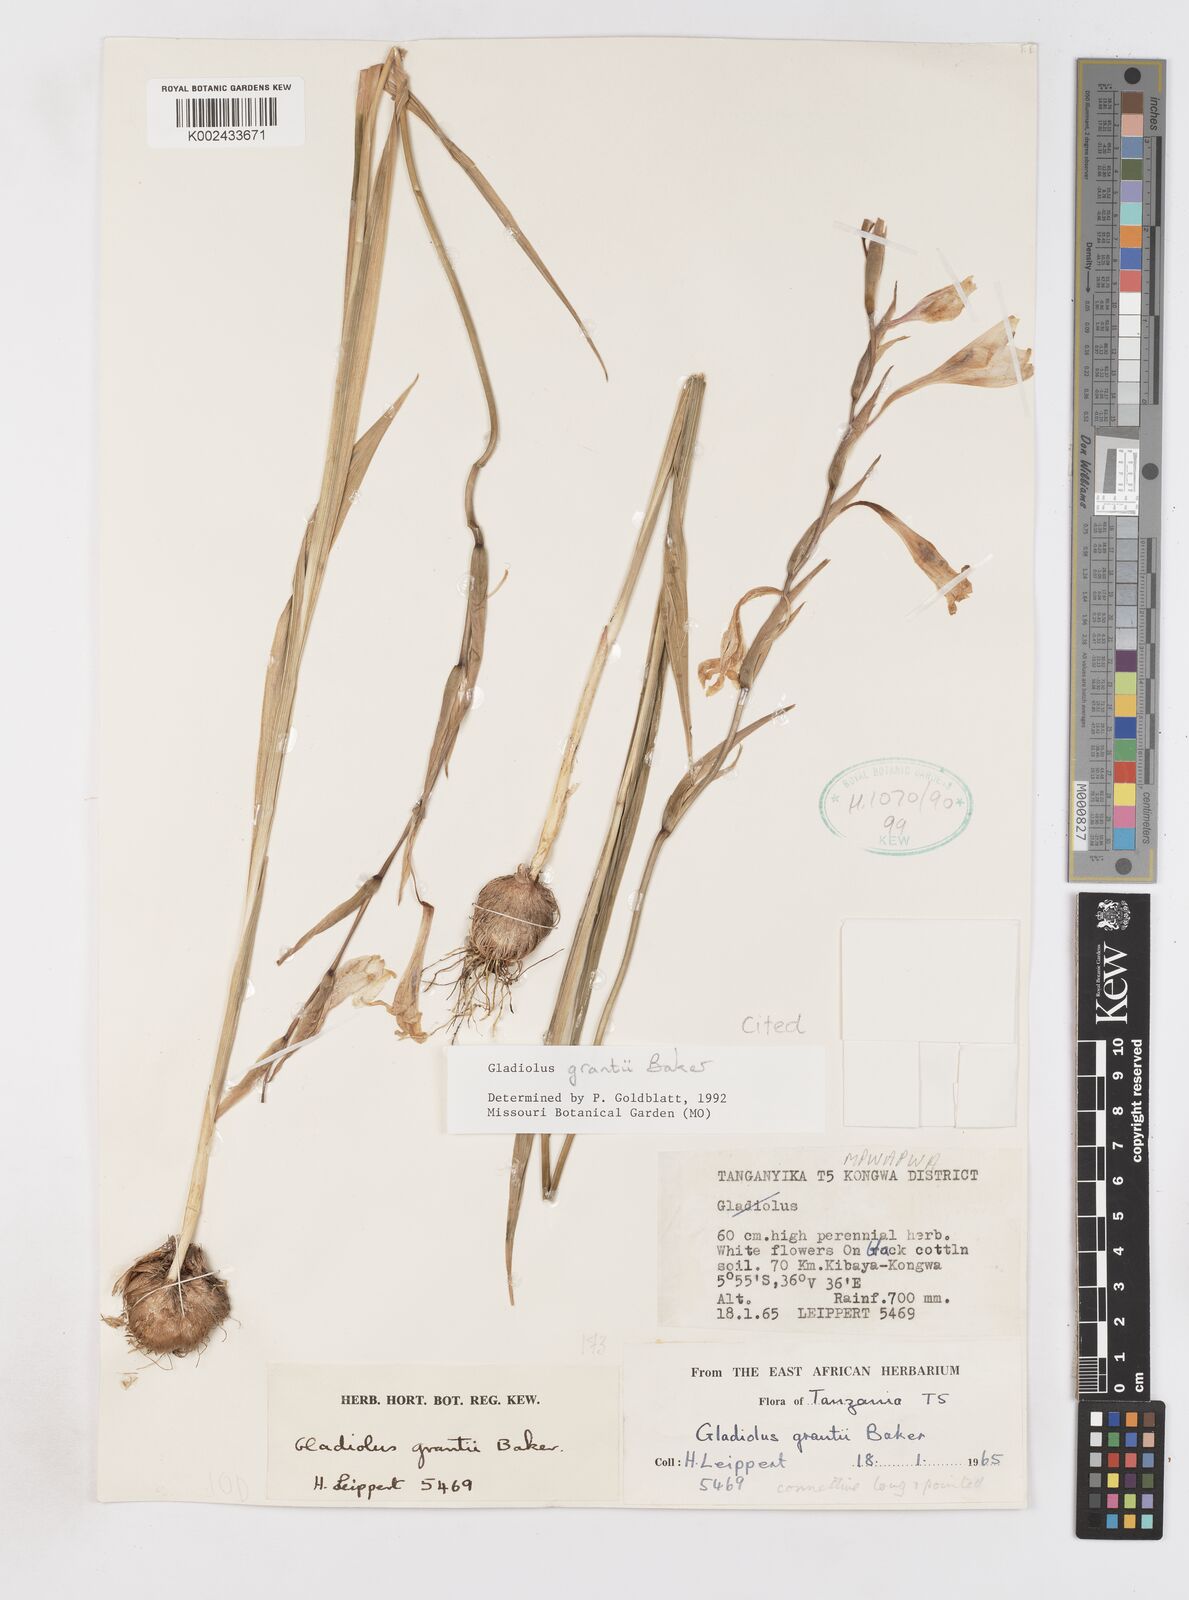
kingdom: Plantae
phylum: Tracheophyta
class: Liliopsida
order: Asparagales
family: Iridaceae
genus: Gladiolus
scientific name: Gladiolus grantii
